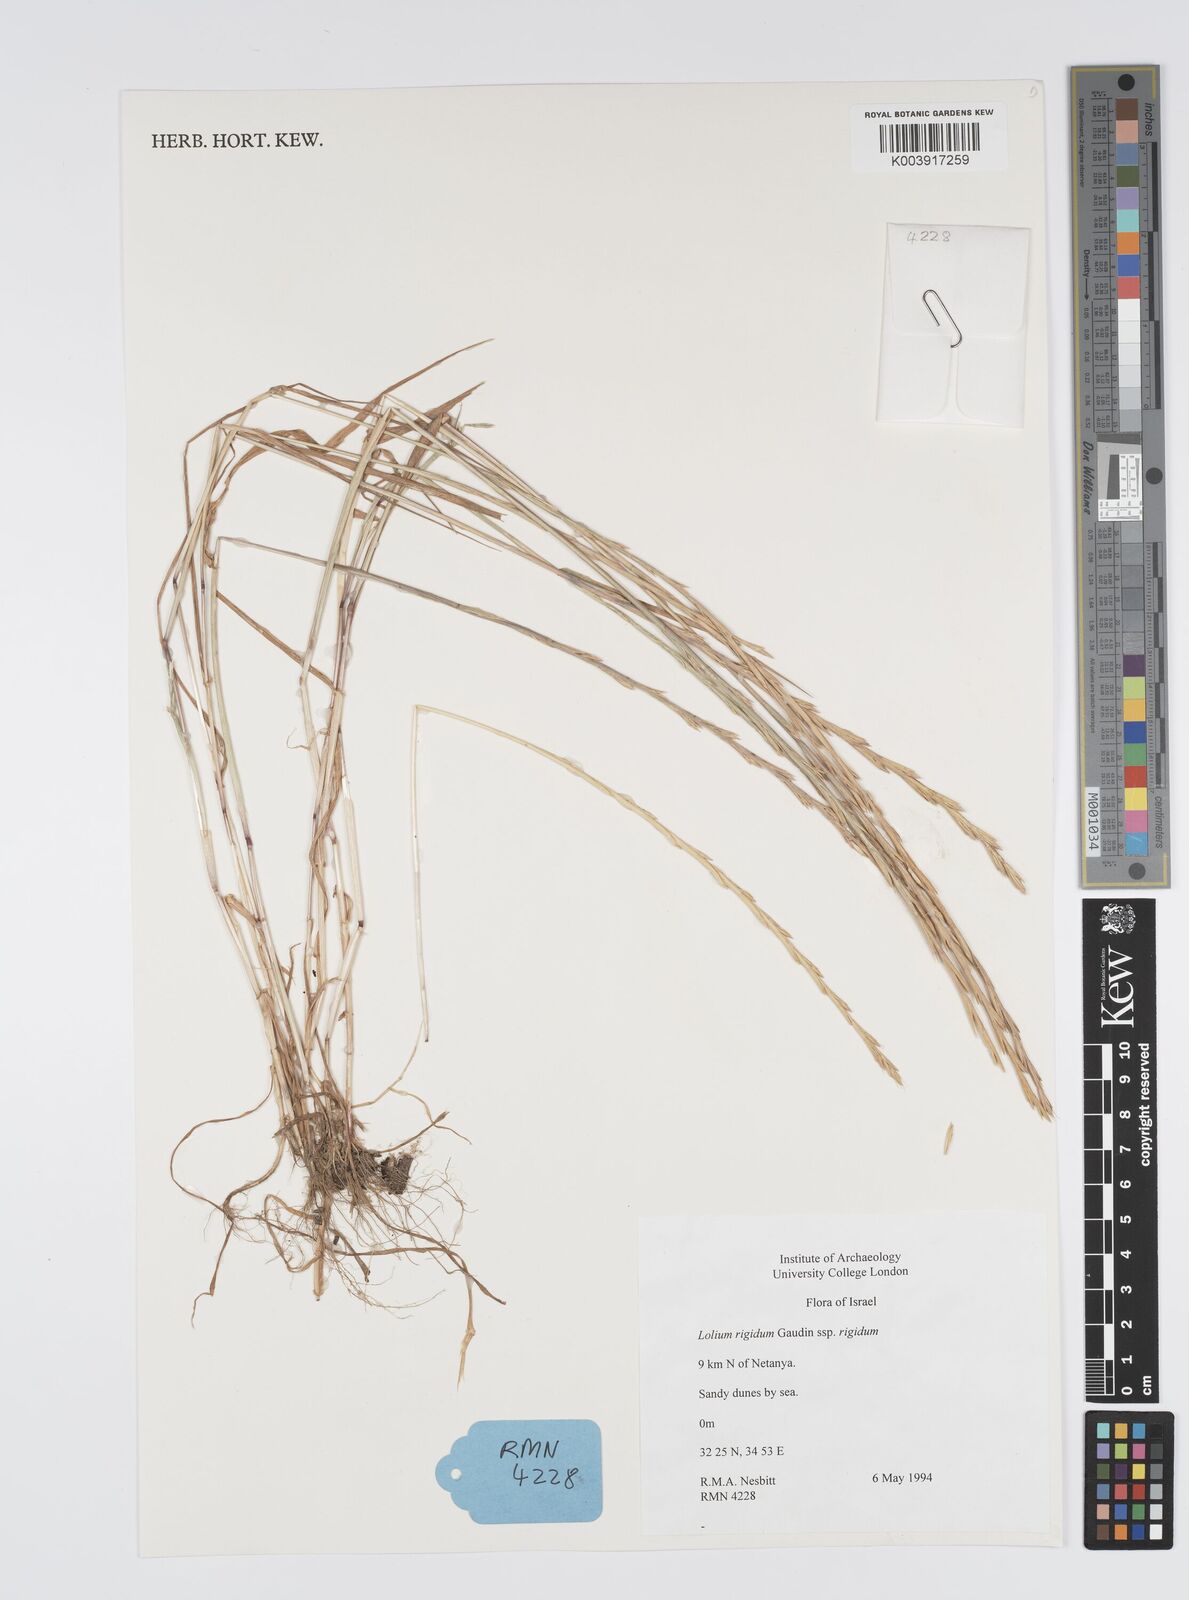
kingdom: Plantae
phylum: Tracheophyta
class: Liliopsida
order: Poales
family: Poaceae
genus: Lolium
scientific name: Lolium rigidum
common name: Wimmera ryegrass
